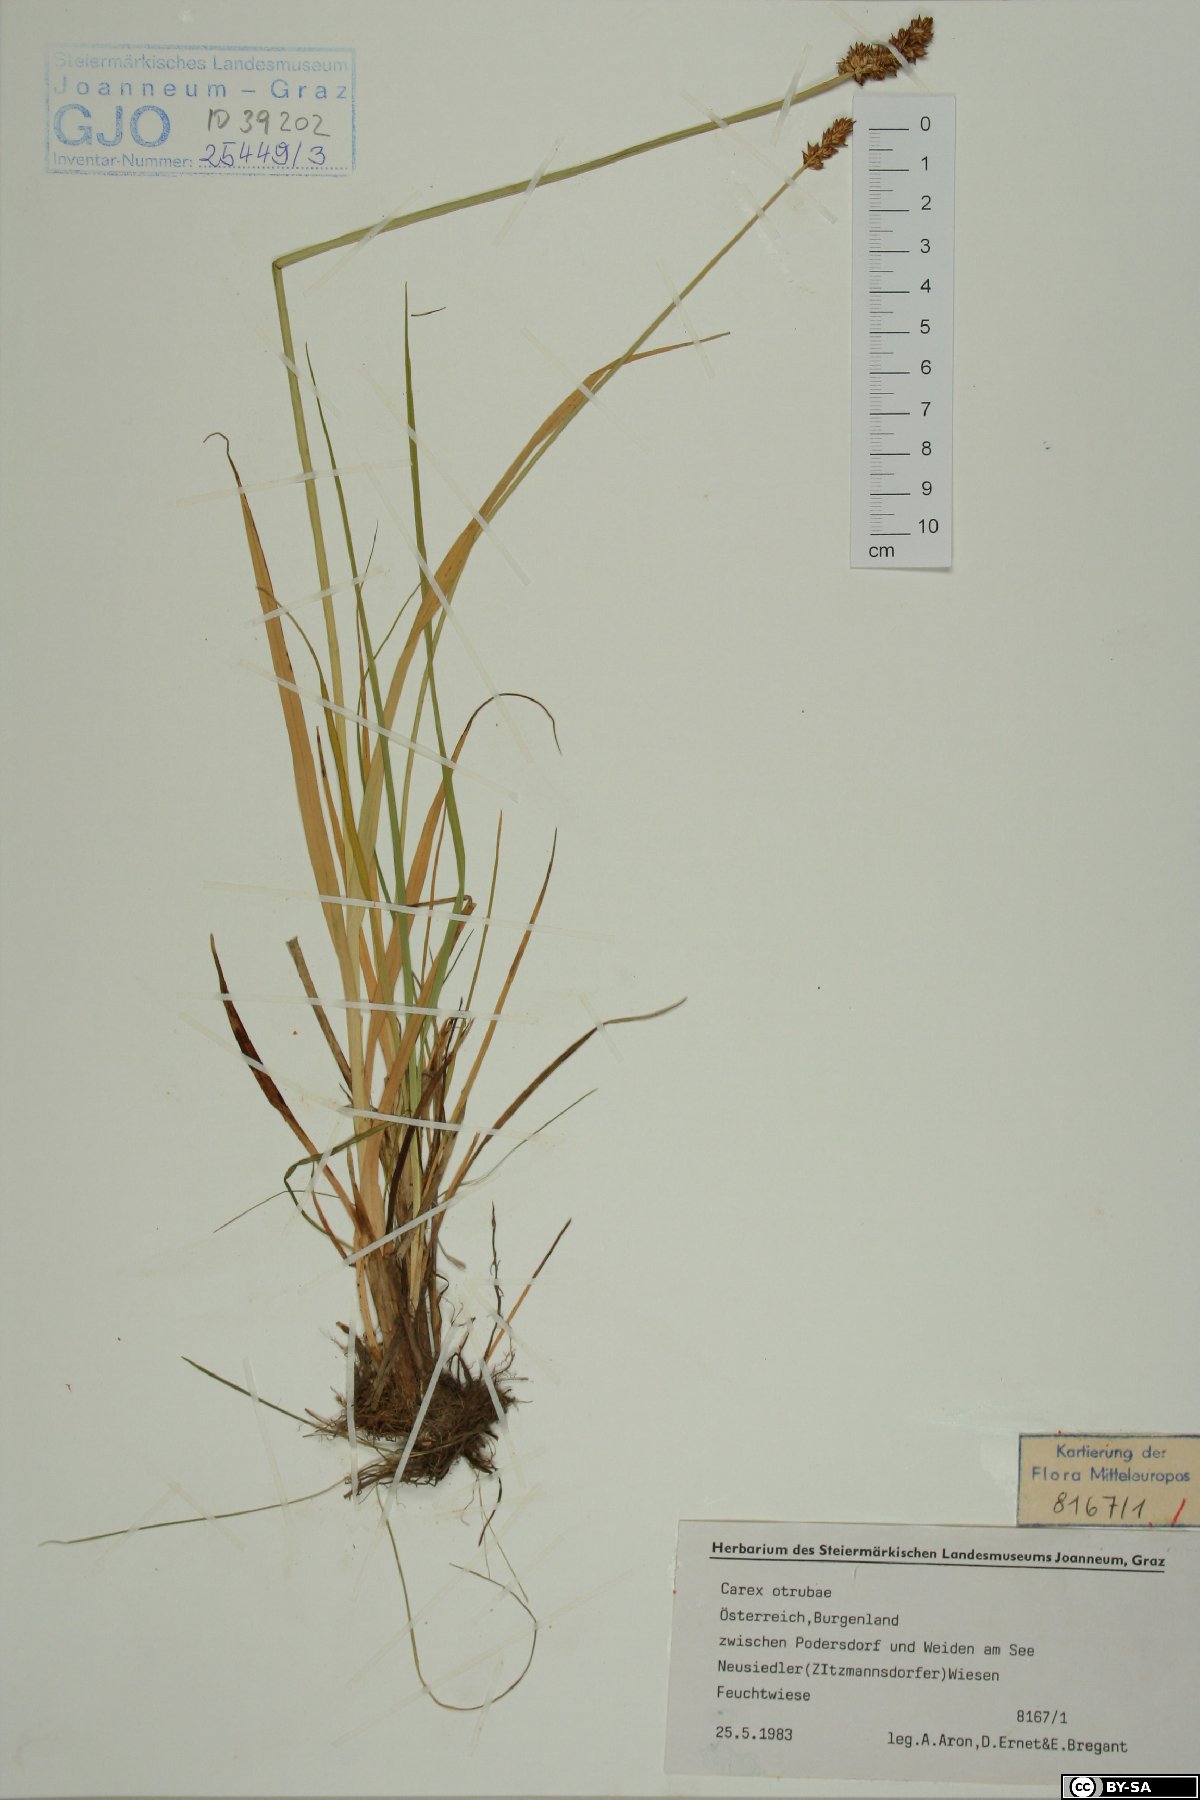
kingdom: Plantae
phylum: Tracheophyta
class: Liliopsida
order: Poales
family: Cyperaceae
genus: Carex
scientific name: Carex otrubae
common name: False fox-sedge
